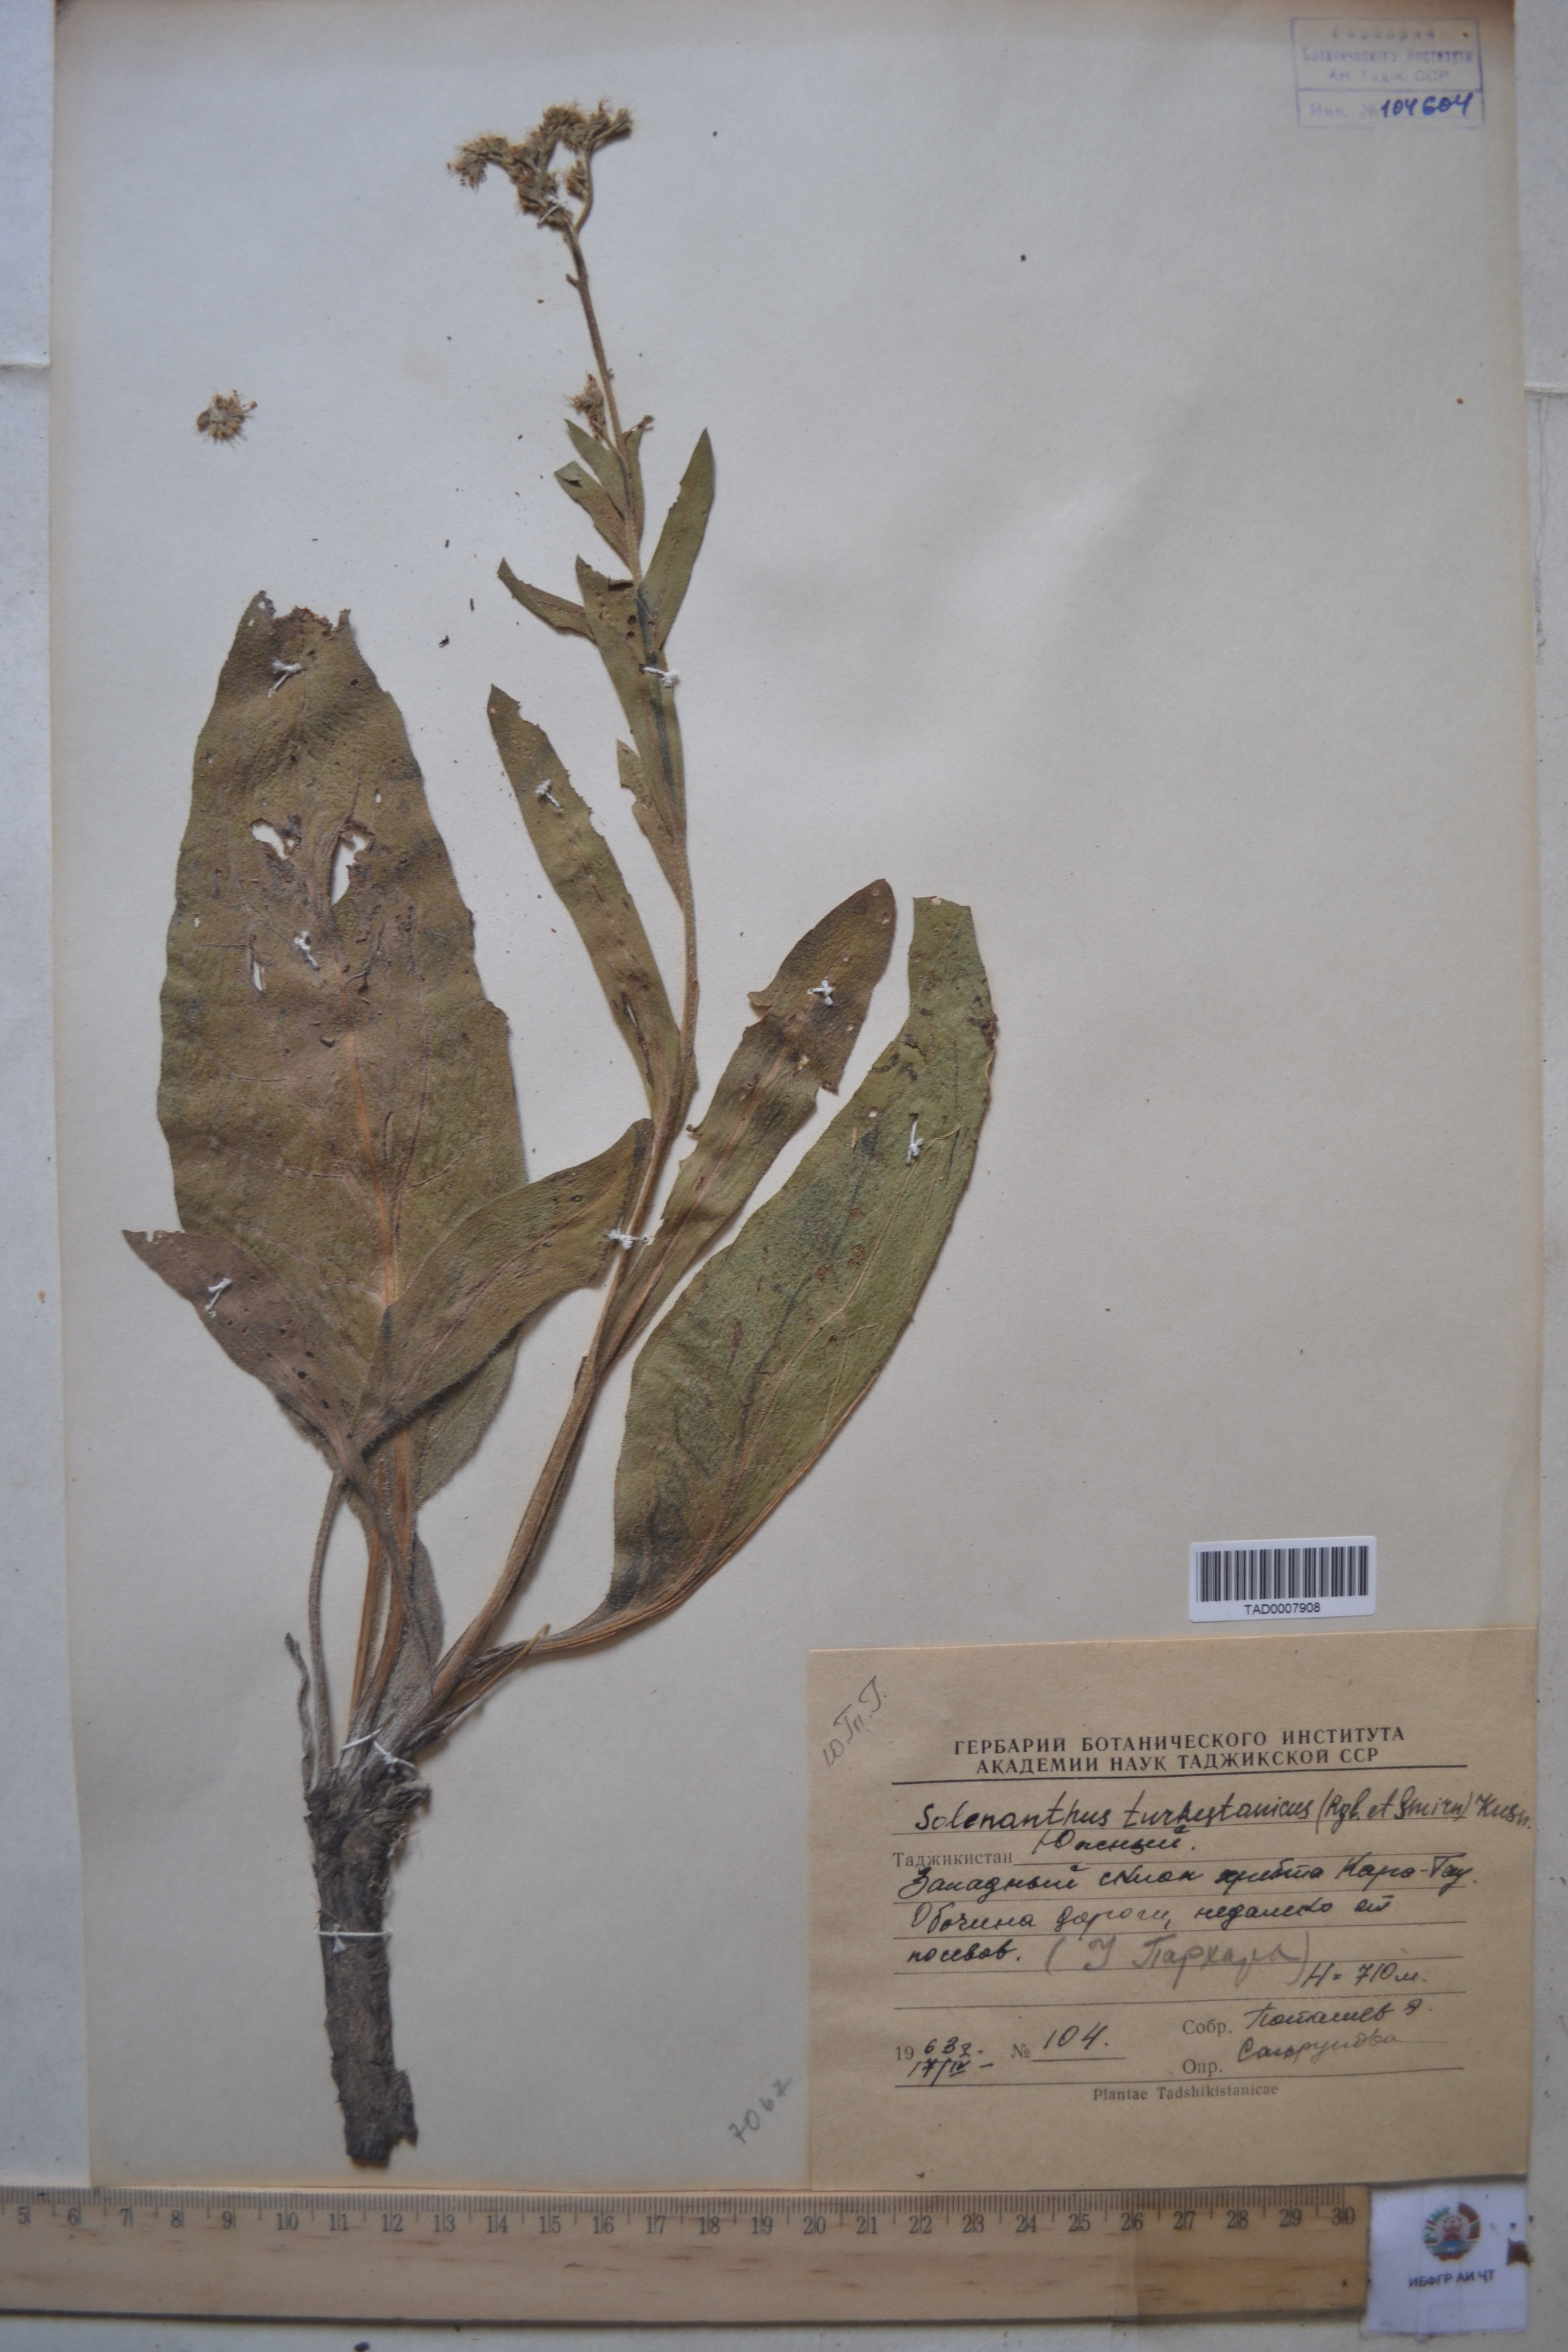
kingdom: Plantae
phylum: Tracheophyta
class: Magnoliopsida
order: Boraginales
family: Boraginaceae
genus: Solenanthus
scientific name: Solenanthus turkestanicus
